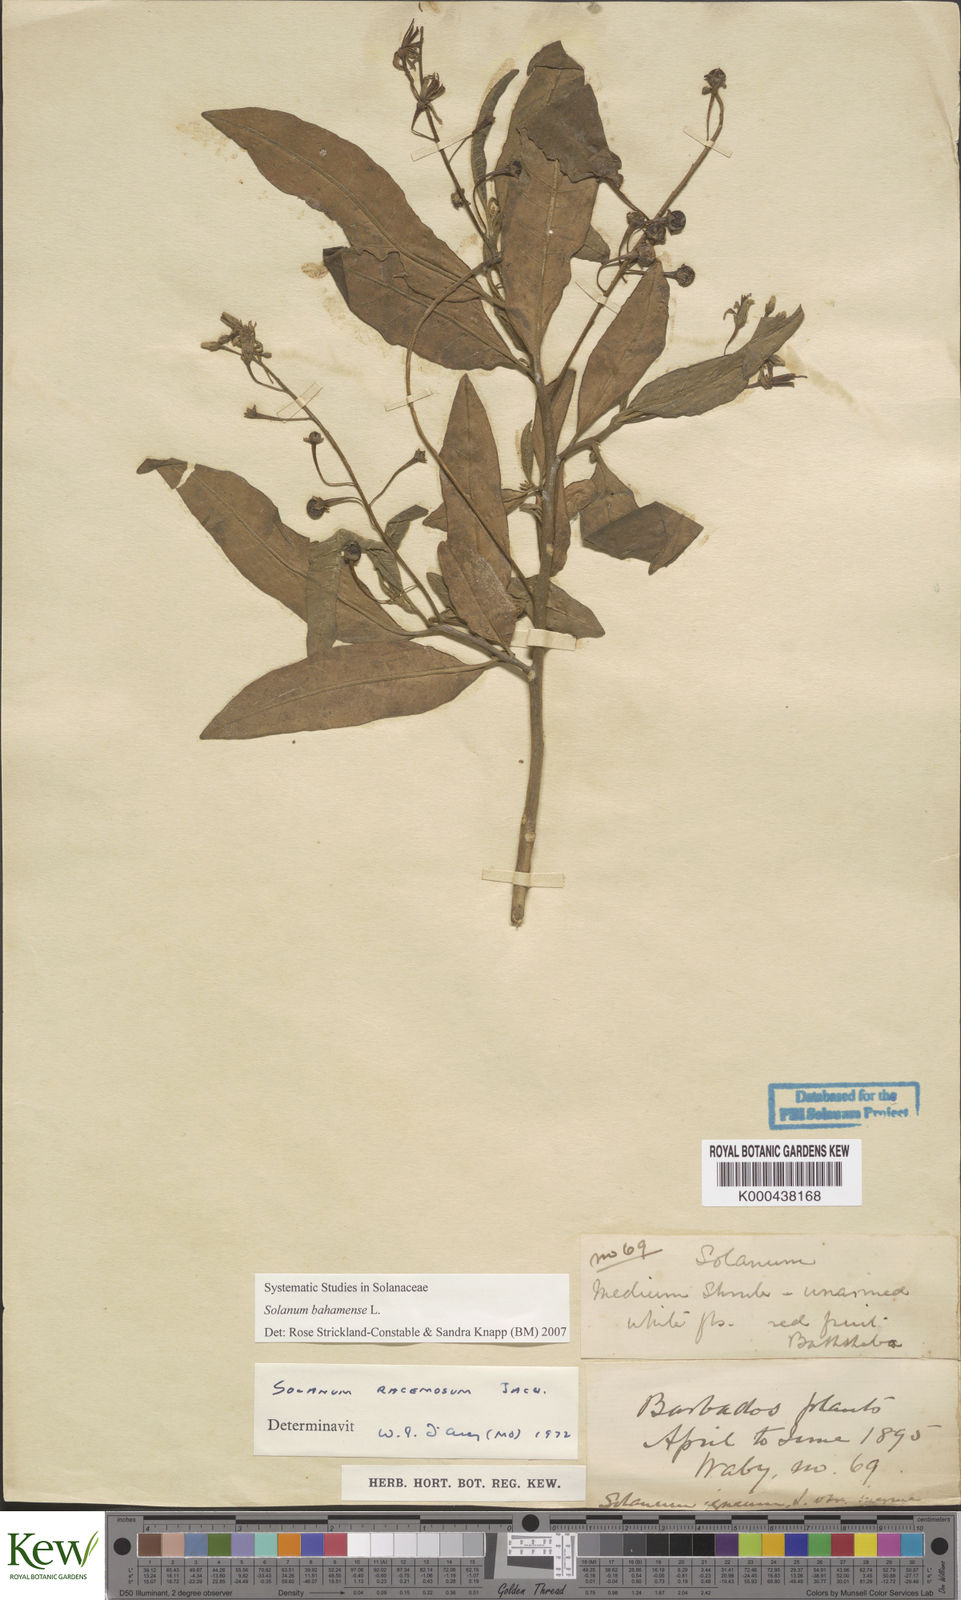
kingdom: Plantae
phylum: Tracheophyta
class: Magnoliopsida
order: Solanales
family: Solanaceae
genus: Solanum
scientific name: Solanum bahamense
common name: Canker-berry
